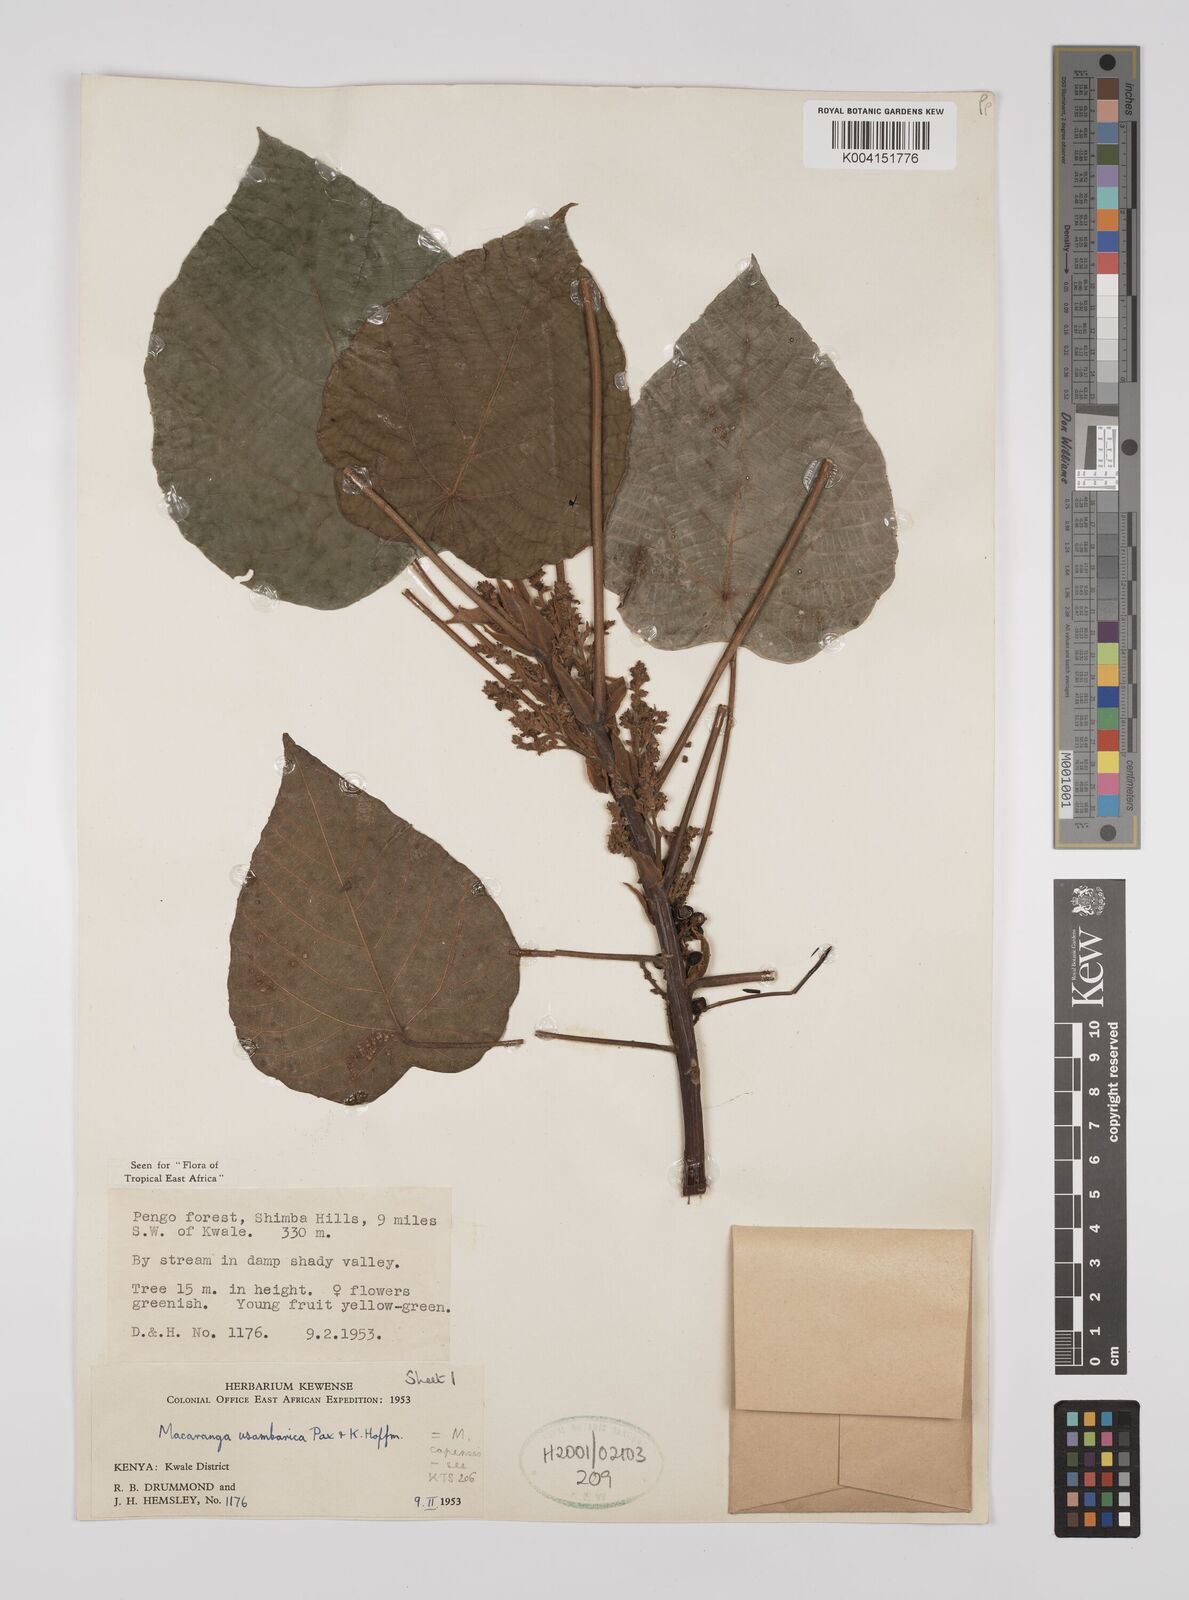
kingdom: Plantae
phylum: Tracheophyta
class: Magnoliopsida
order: Malpighiales
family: Euphorbiaceae
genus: Macaranga
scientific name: Macaranga capensis
